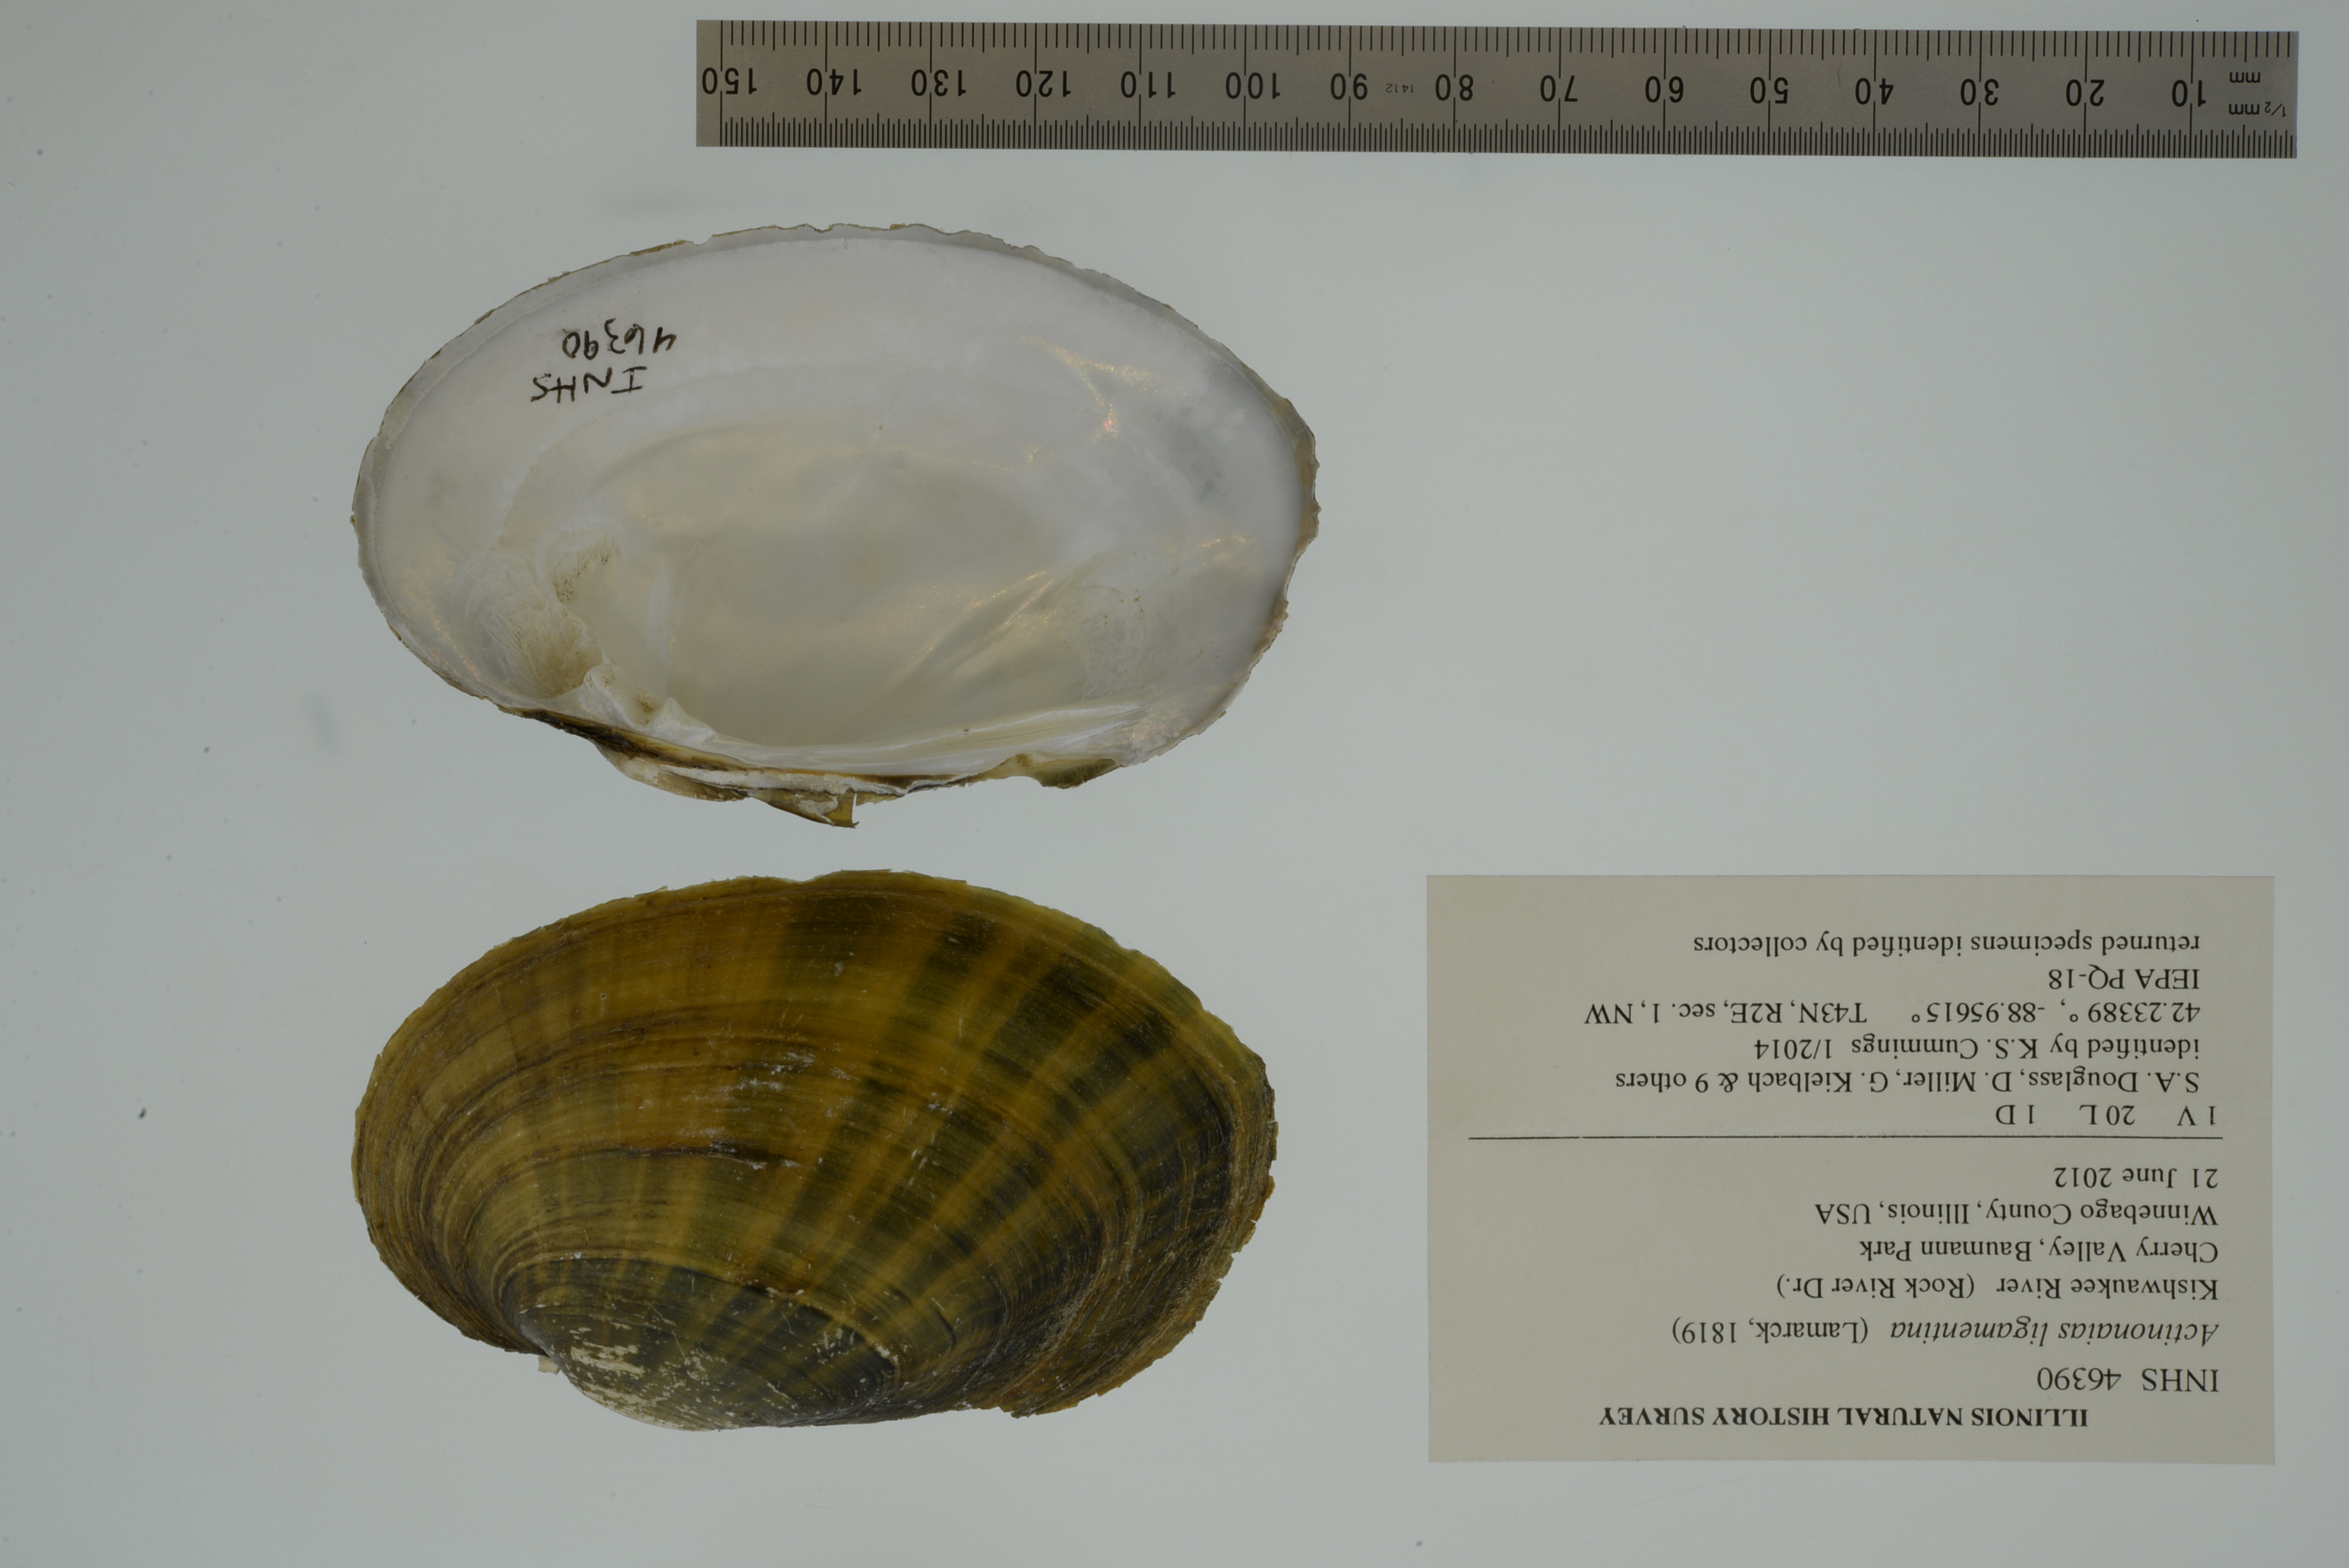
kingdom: Animalia
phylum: Mollusca
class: Bivalvia
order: Unionida
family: Unionidae
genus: Ortmanniana
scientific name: Ortmanniana ligamentina
